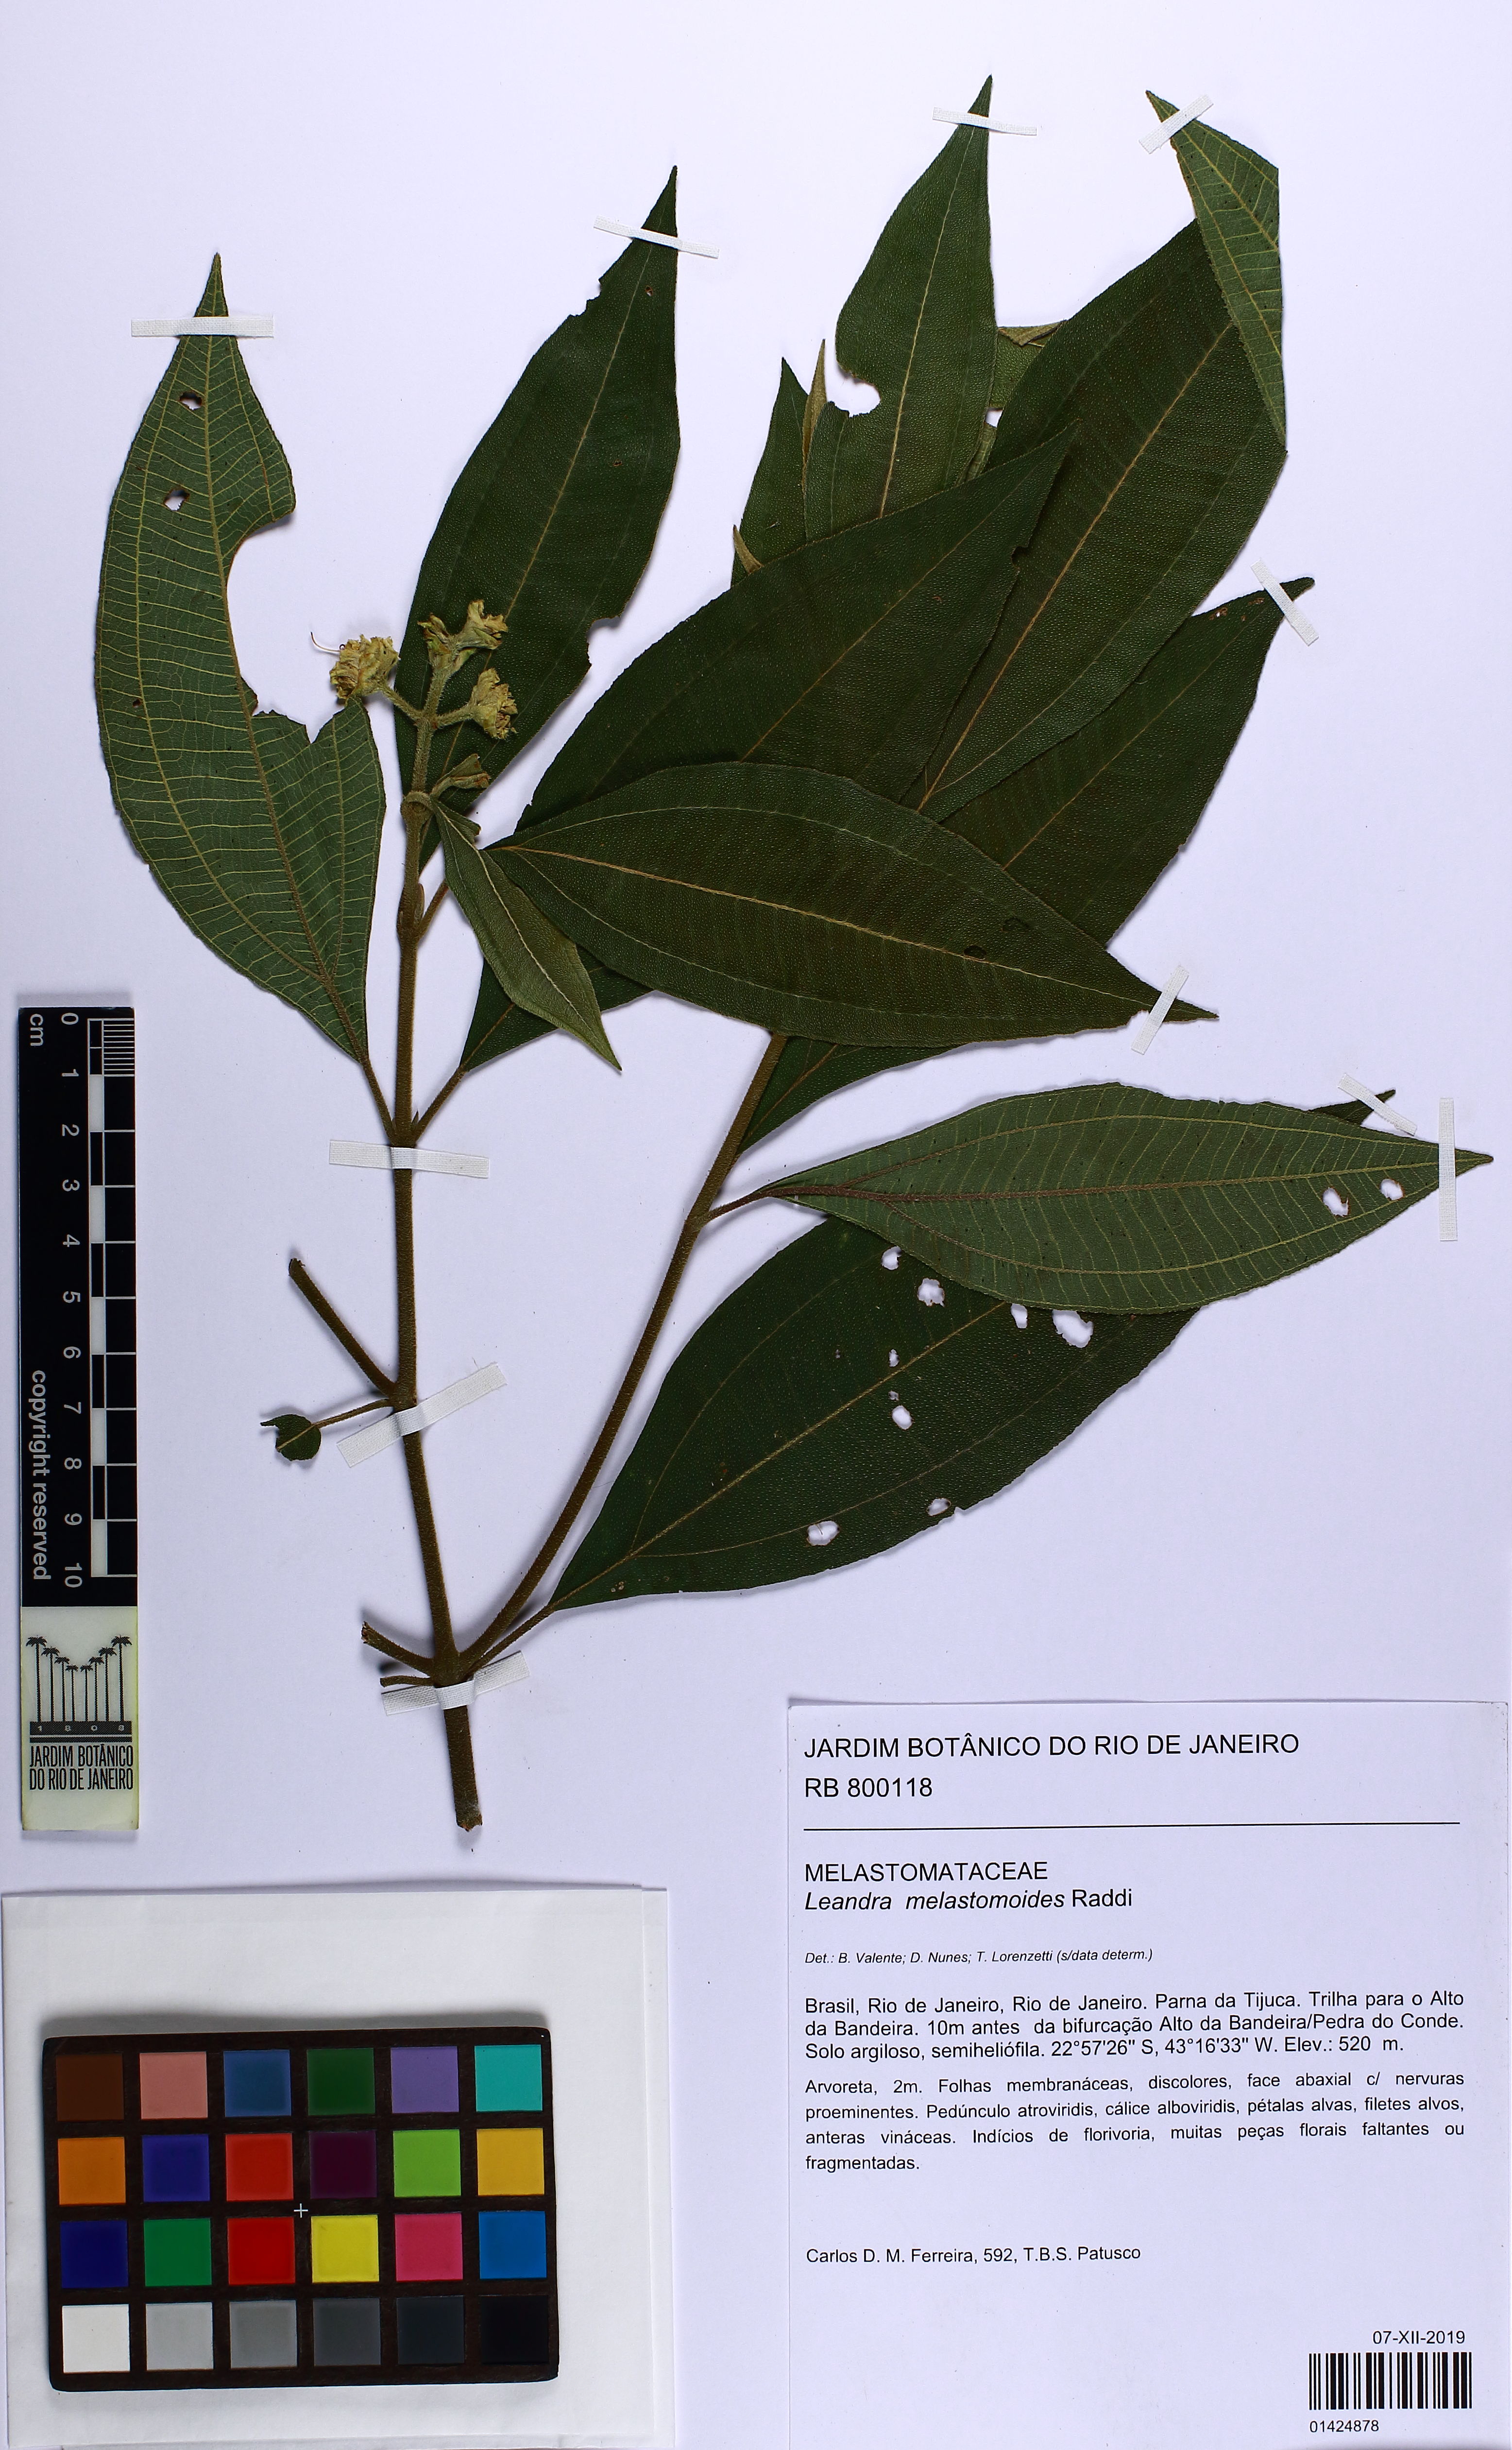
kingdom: Plantae
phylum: Tracheophyta
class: Magnoliopsida
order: Myrtales
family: Melastomataceae
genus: Miconia
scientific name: Miconia melastomoides
